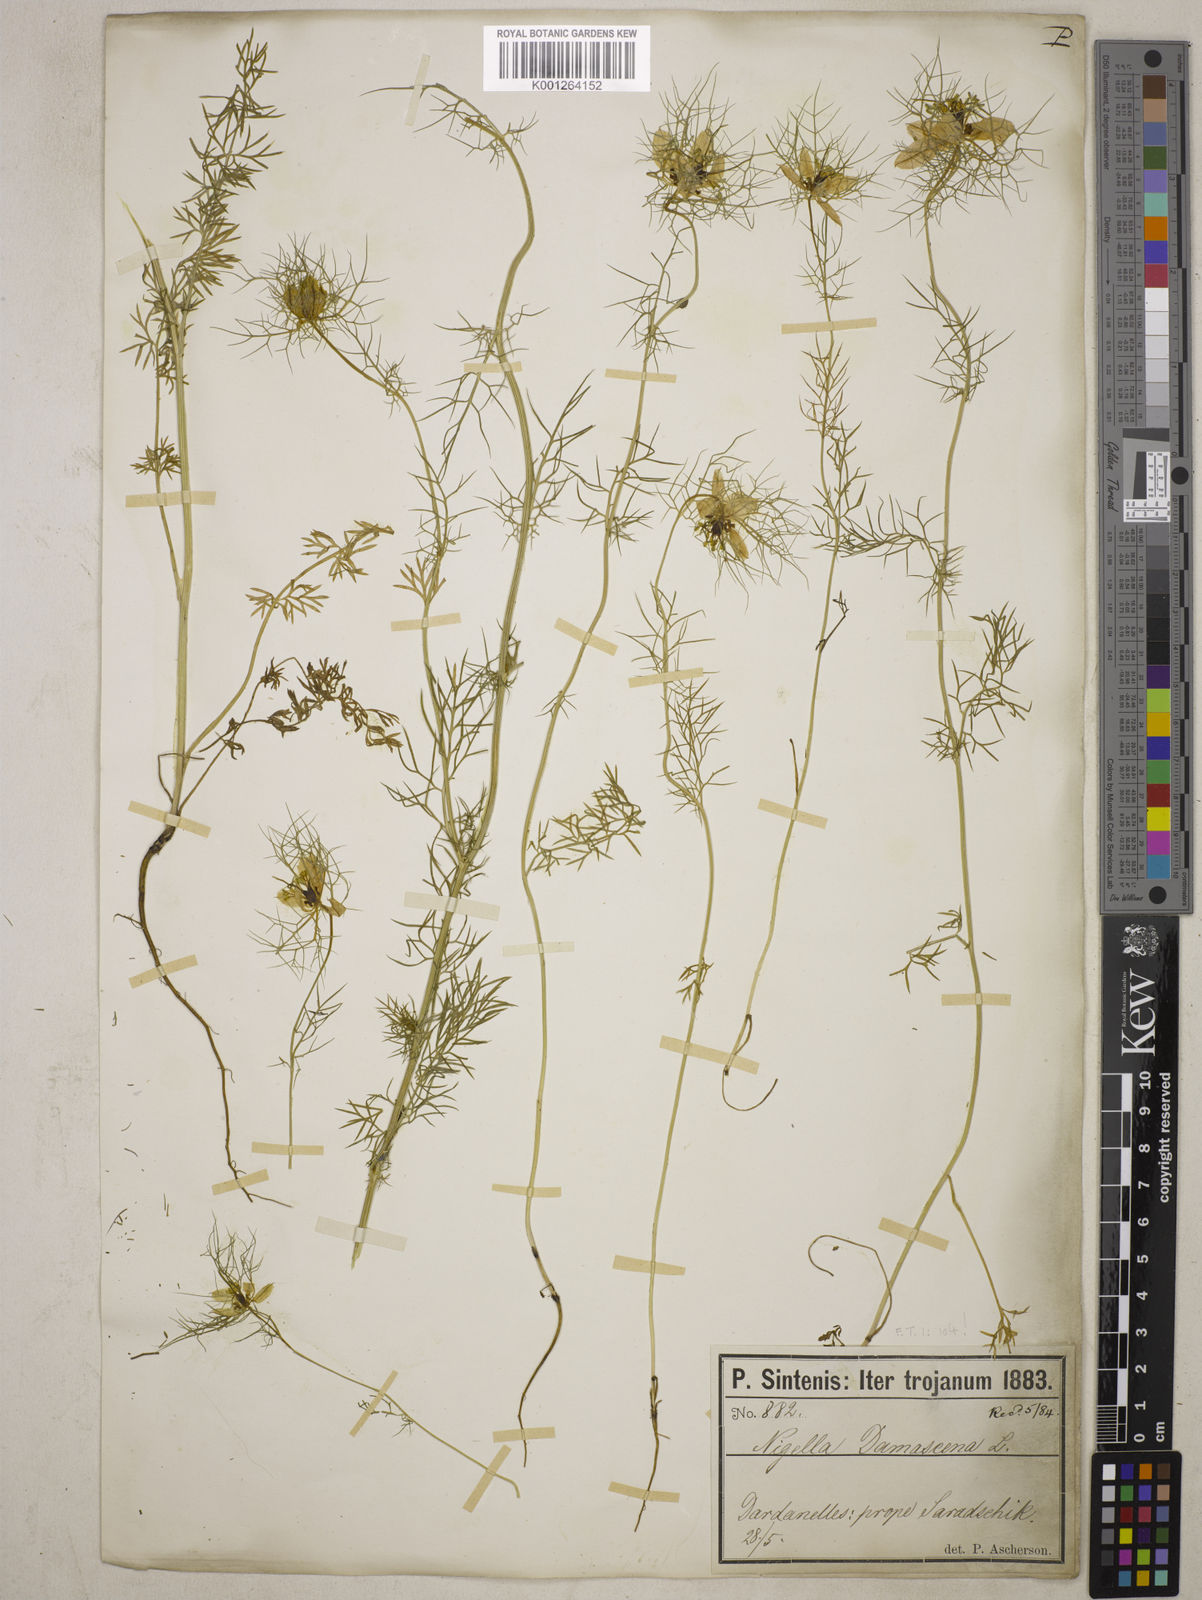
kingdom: Plantae
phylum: Tracheophyta
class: Magnoliopsida
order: Ranunculales
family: Ranunculaceae
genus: Nigella
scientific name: Nigella damascena
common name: Love-in-a-mist
